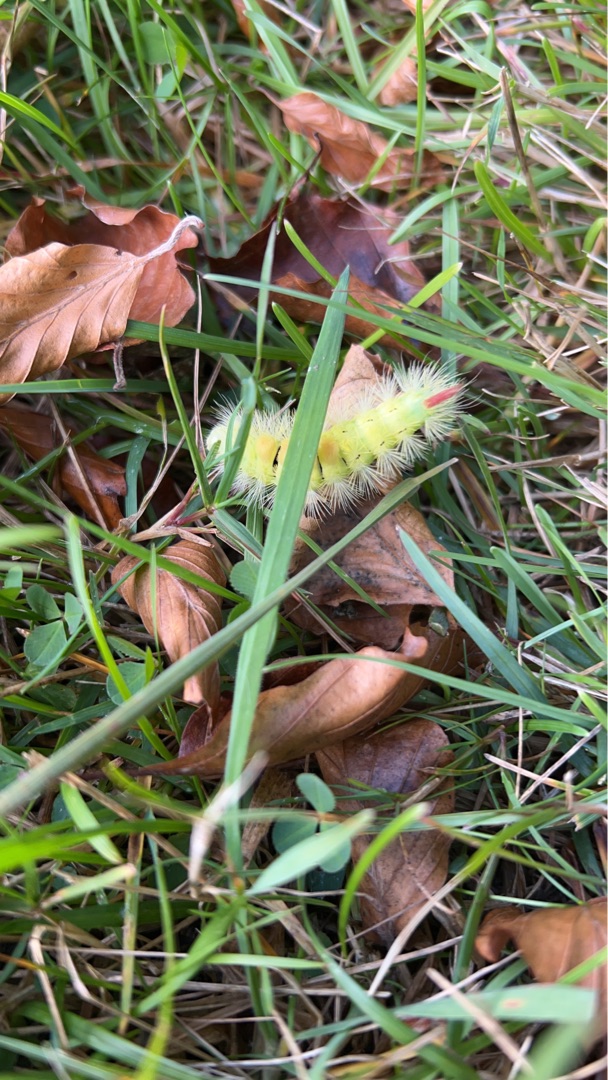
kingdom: Animalia
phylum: Arthropoda
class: Insecta
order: Lepidoptera
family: Erebidae
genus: Calliteara
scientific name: Calliteara pudibunda
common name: Bøgenonne
